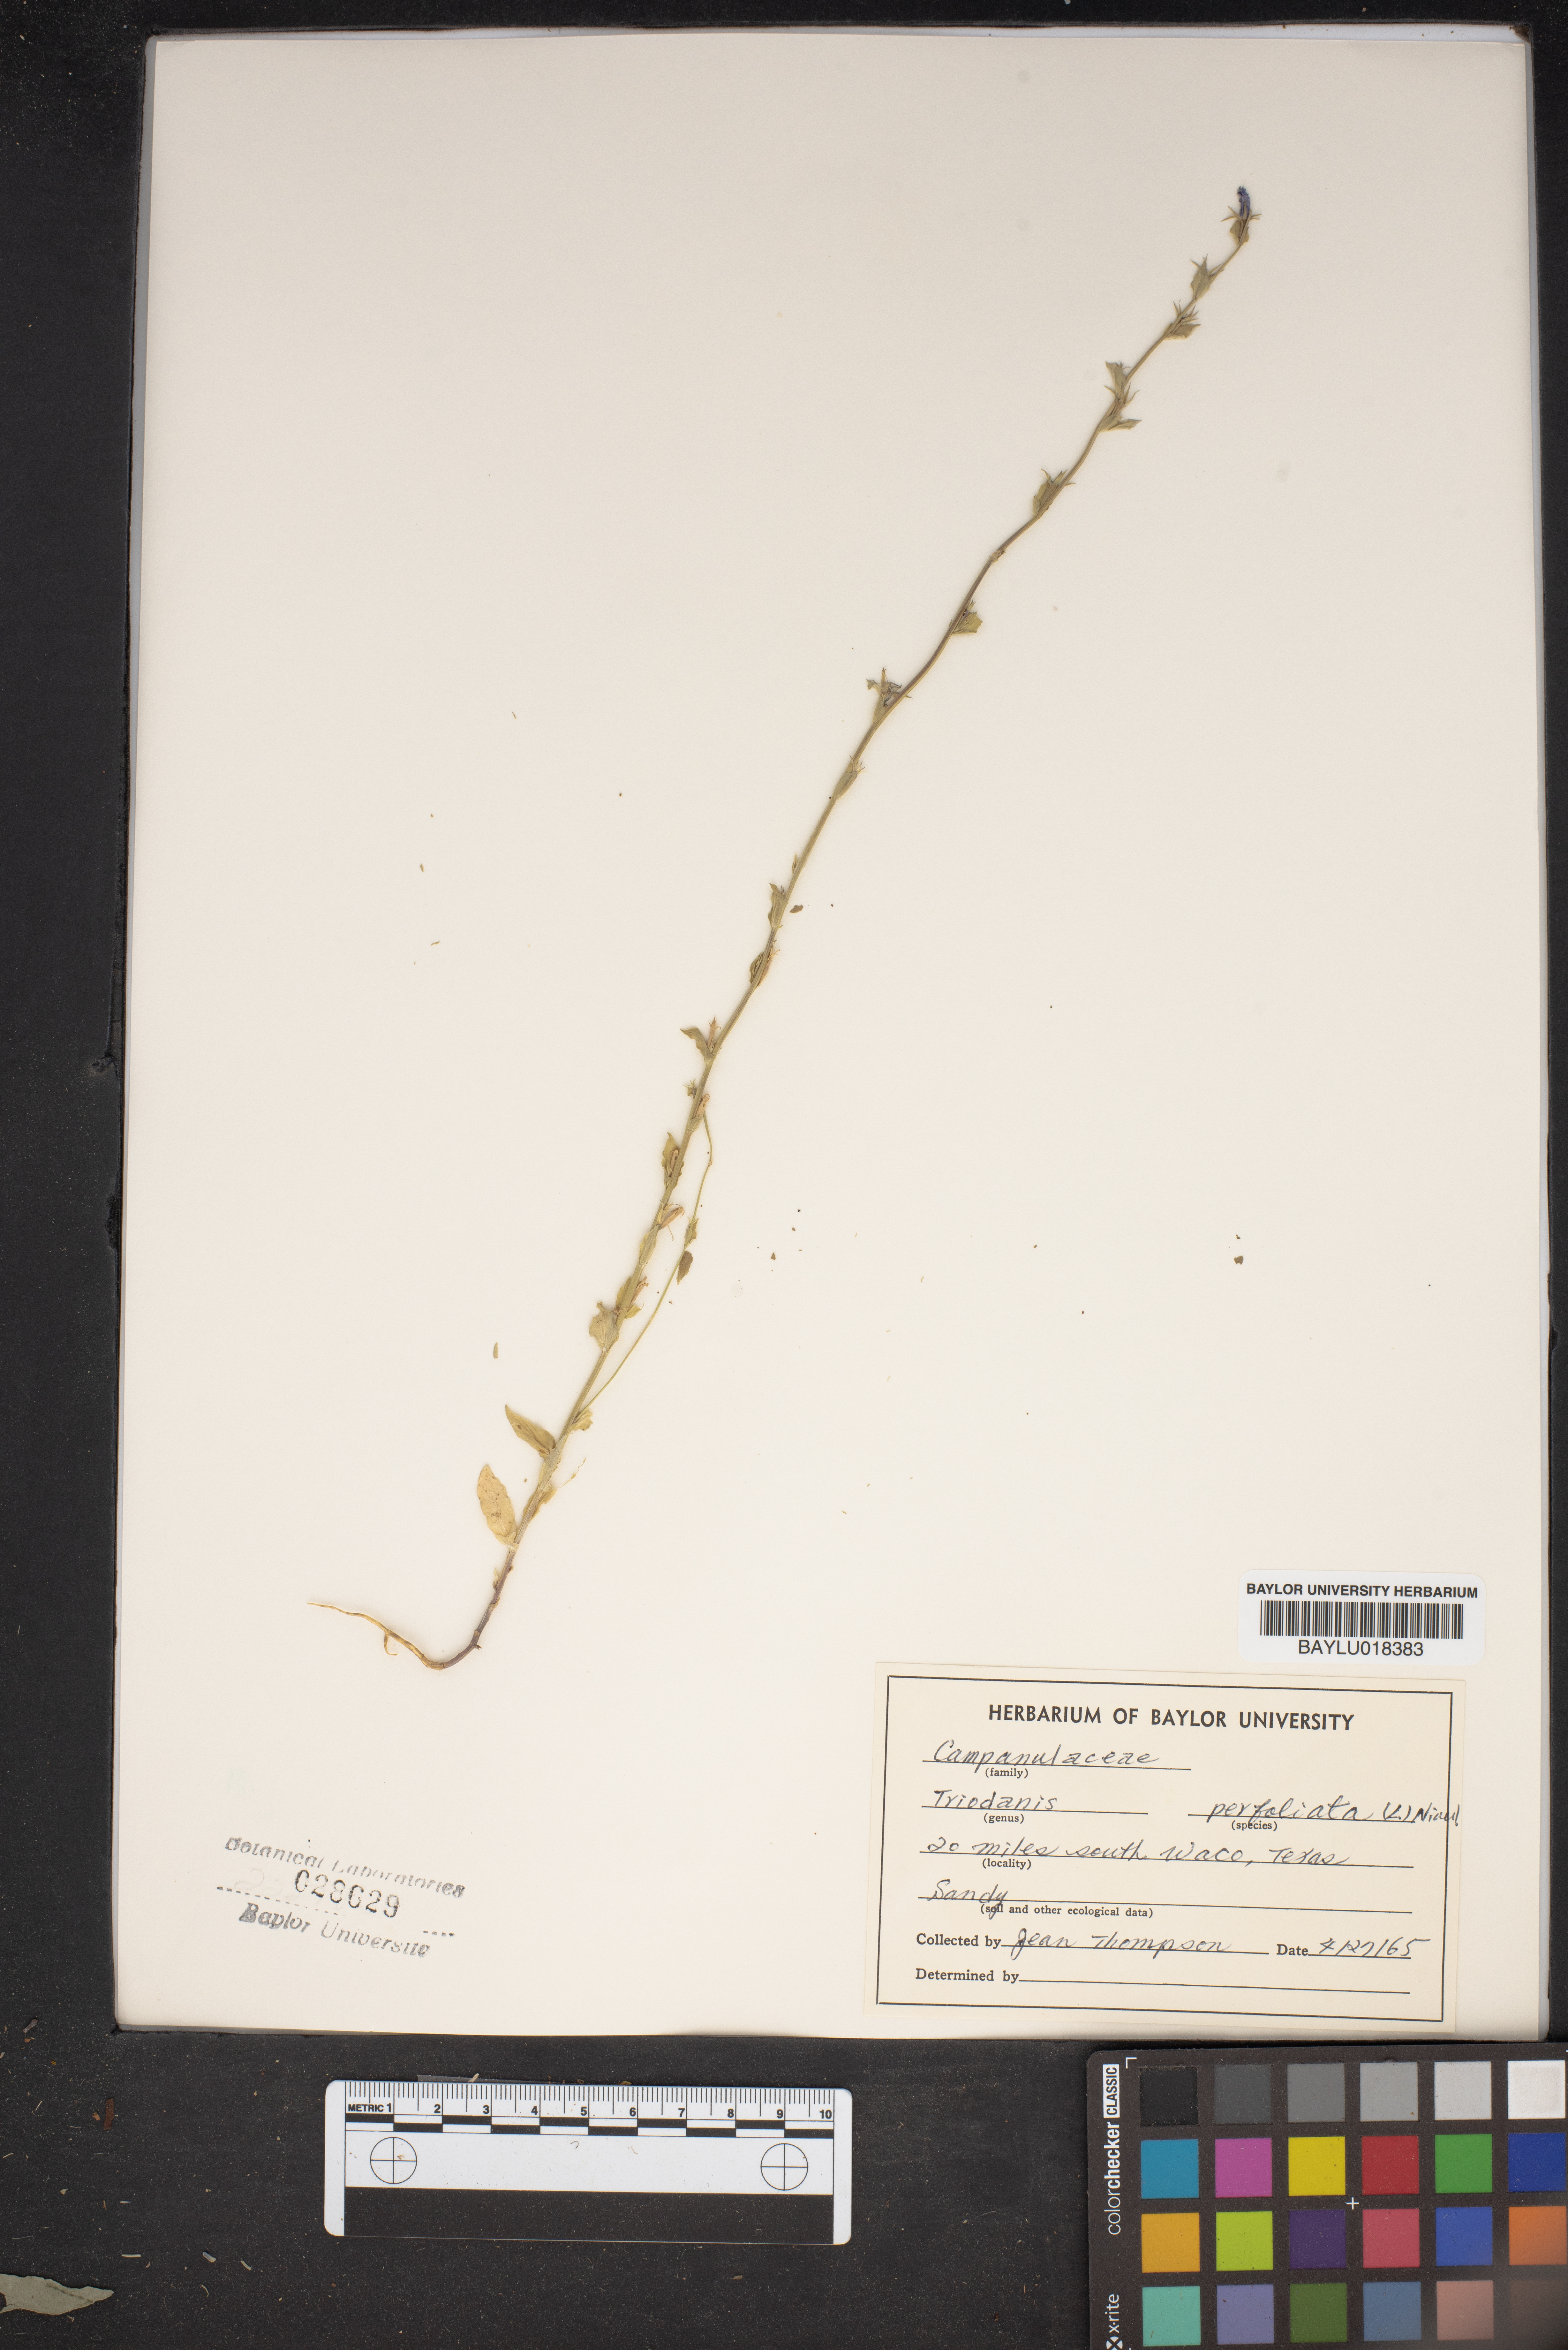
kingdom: Plantae
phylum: Tracheophyta
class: Magnoliopsida
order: Asterales
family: Campanulaceae
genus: Triodanis
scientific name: Triodanis perfoliata
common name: Clasping venus' looking-glass
